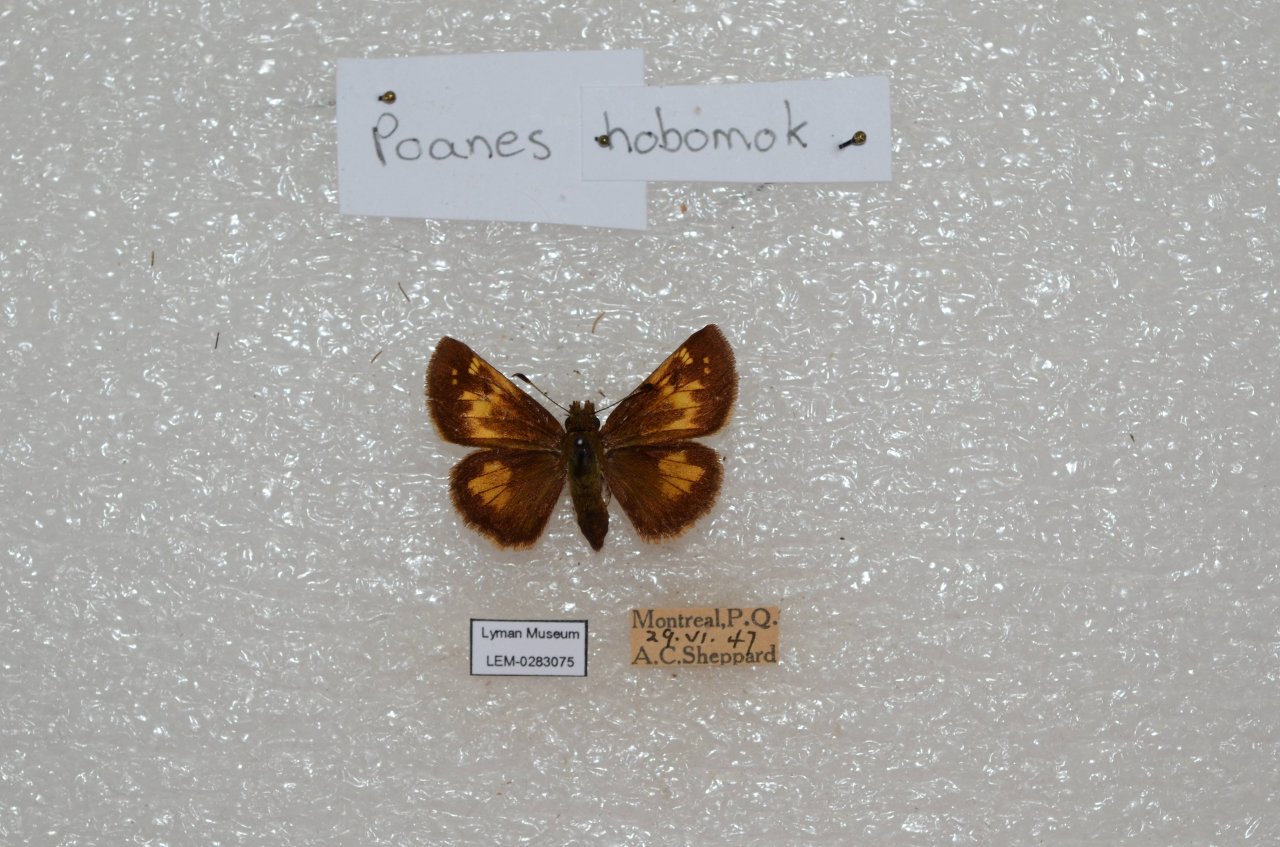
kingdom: Animalia
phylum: Arthropoda
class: Insecta
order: Lepidoptera
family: Hesperiidae
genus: Lon
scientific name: Lon hobomok
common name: Hobomok Skipper
